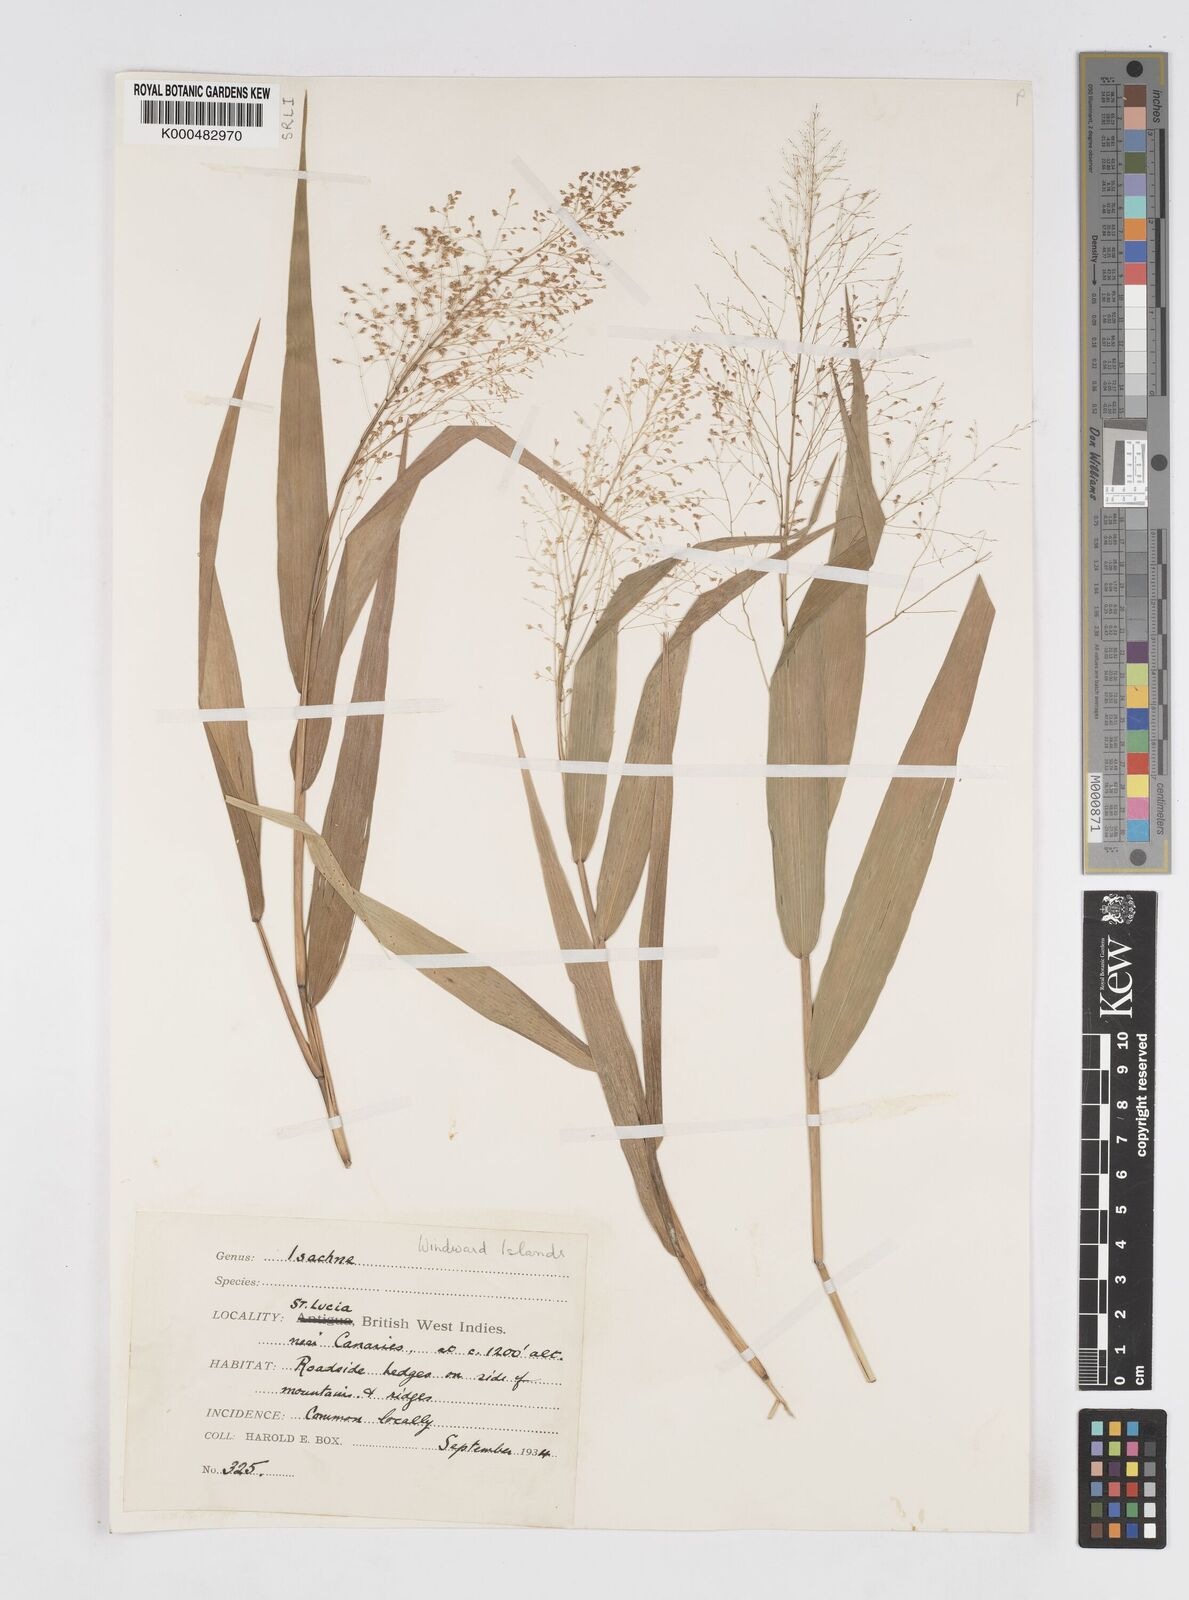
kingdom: Plantae
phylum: Tracheophyta
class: Liliopsida
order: Poales
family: Poaceae
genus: Isachne
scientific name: Isachne
